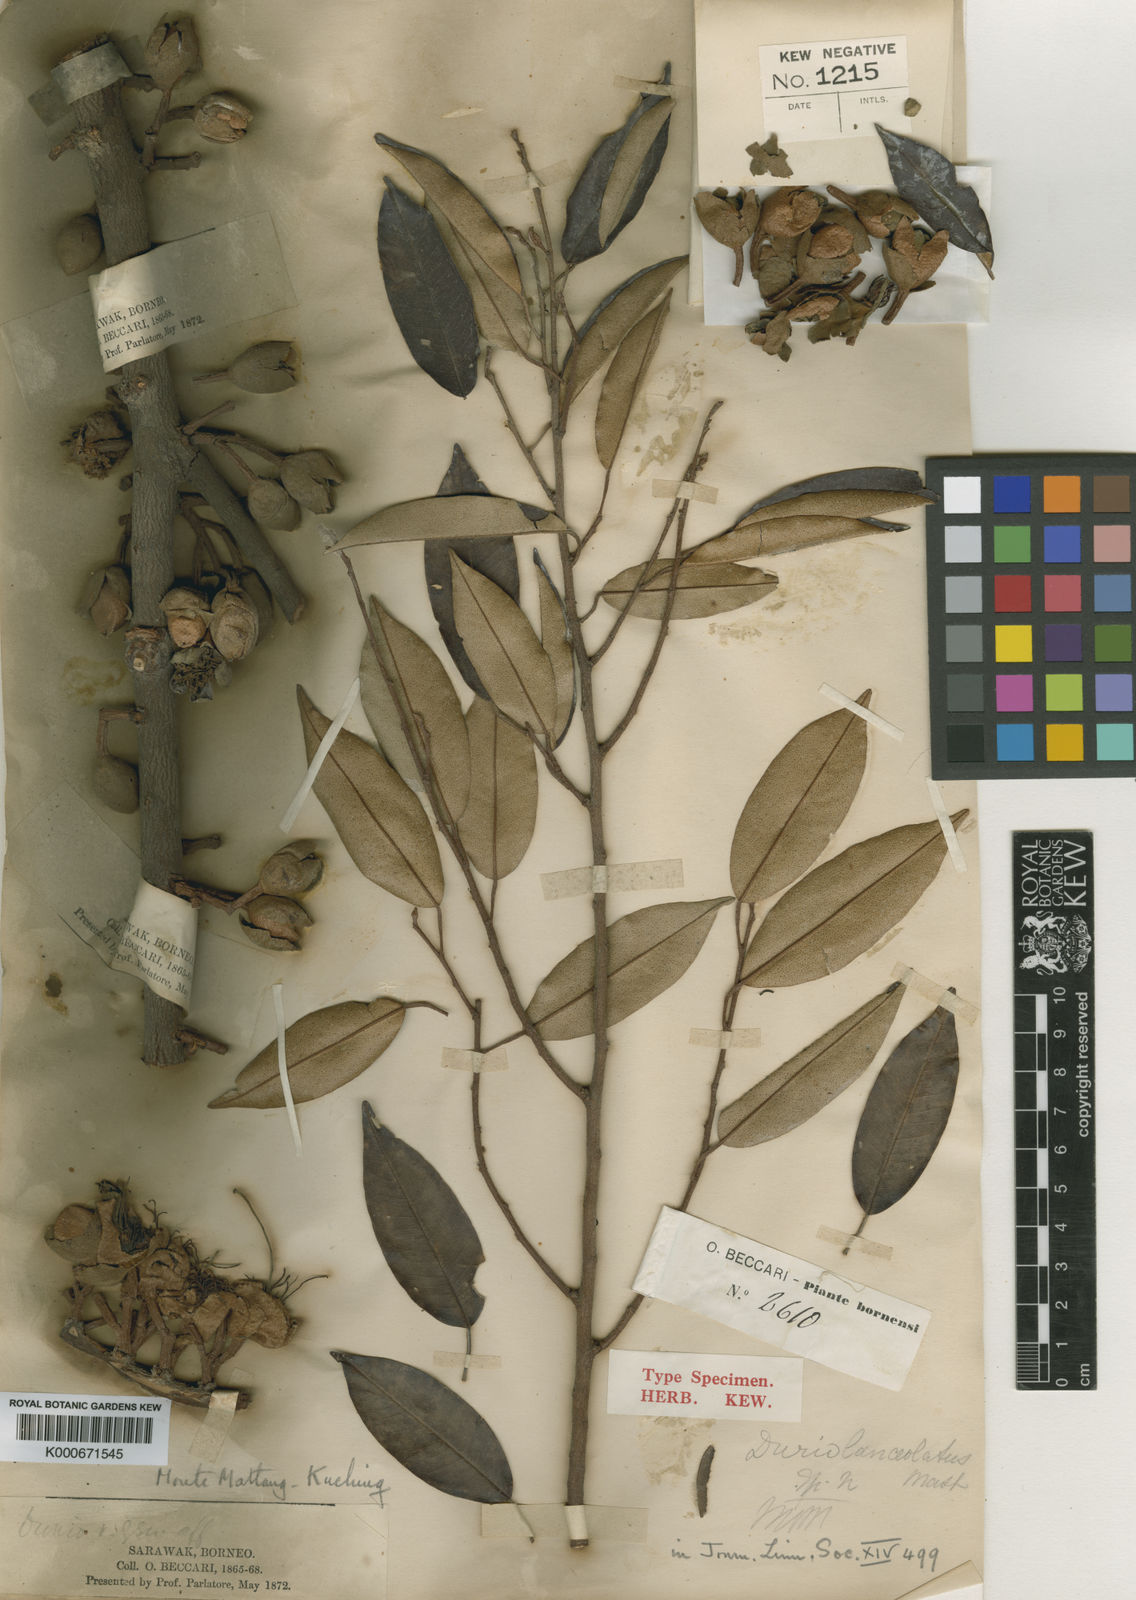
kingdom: Plantae
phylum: Tracheophyta
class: Magnoliopsida
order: Malvales
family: Malvaceae
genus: Durio
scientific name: Durio lanceolatus
